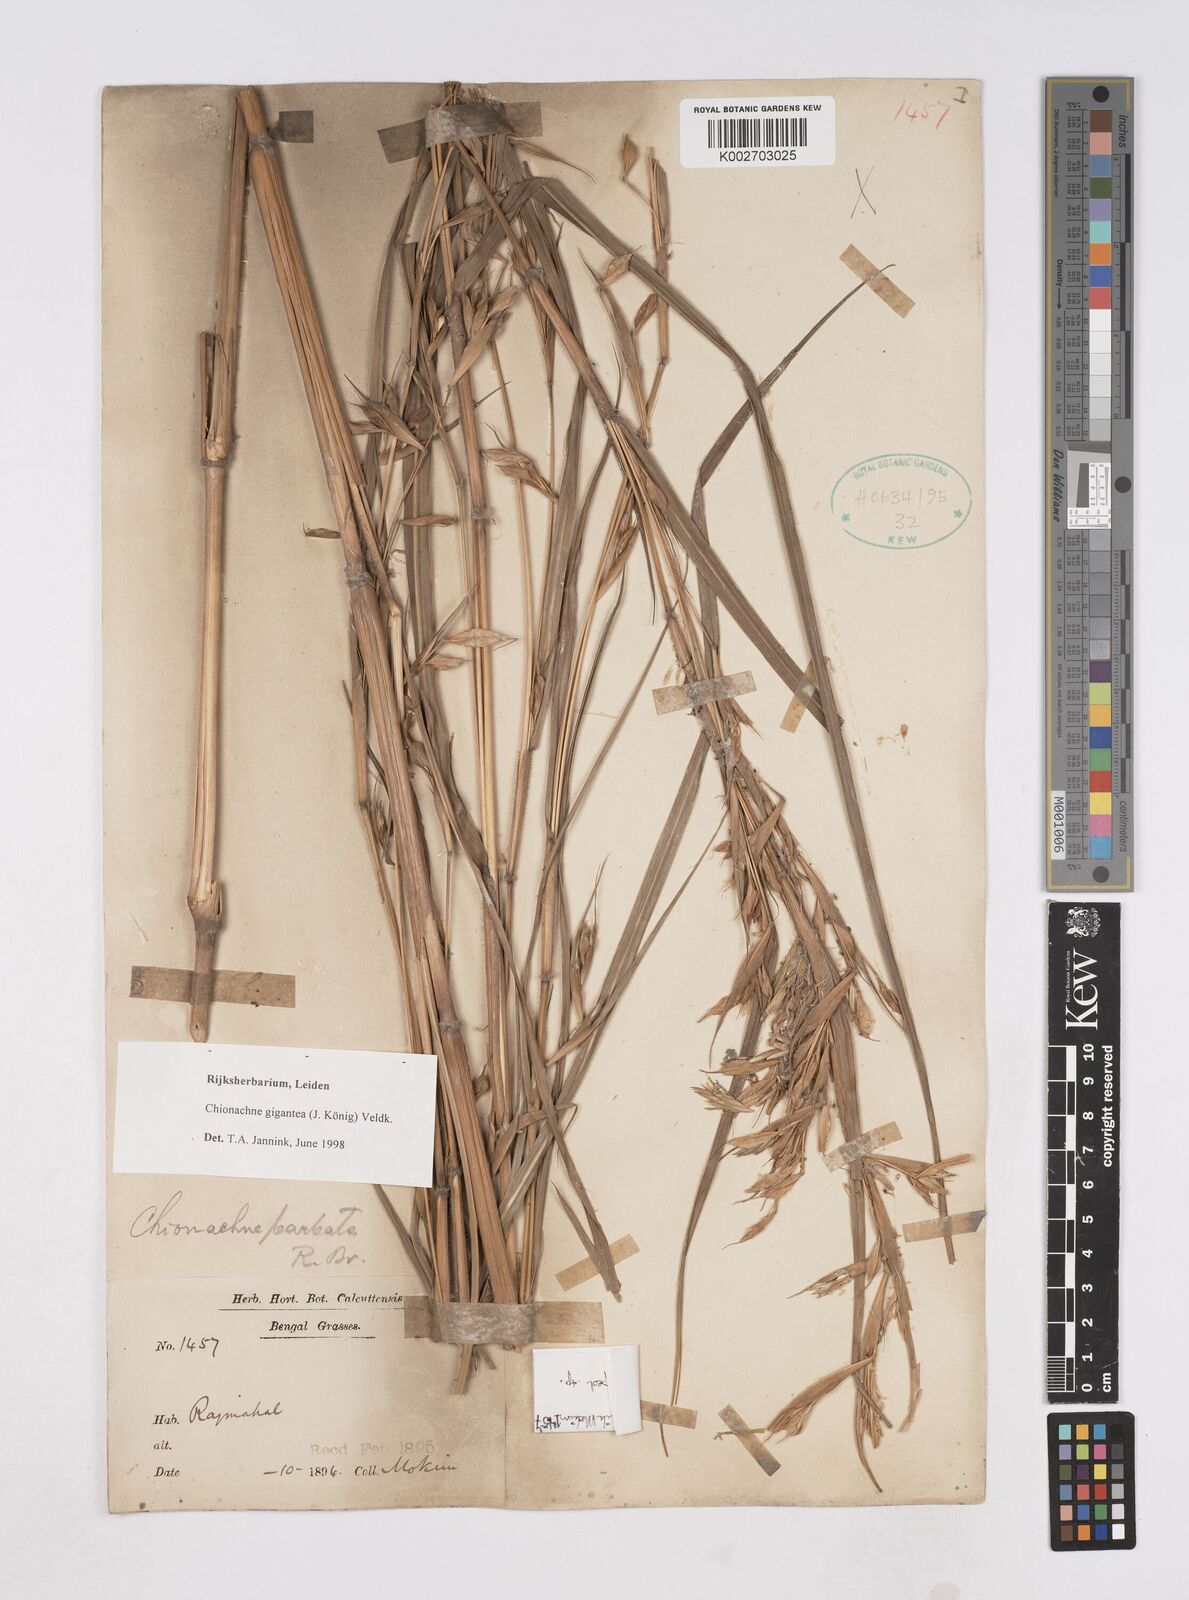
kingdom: Plantae
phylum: Tracheophyta
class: Liliopsida
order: Poales
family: Poaceae
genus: Polytoca
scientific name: Polytoca gigantea
